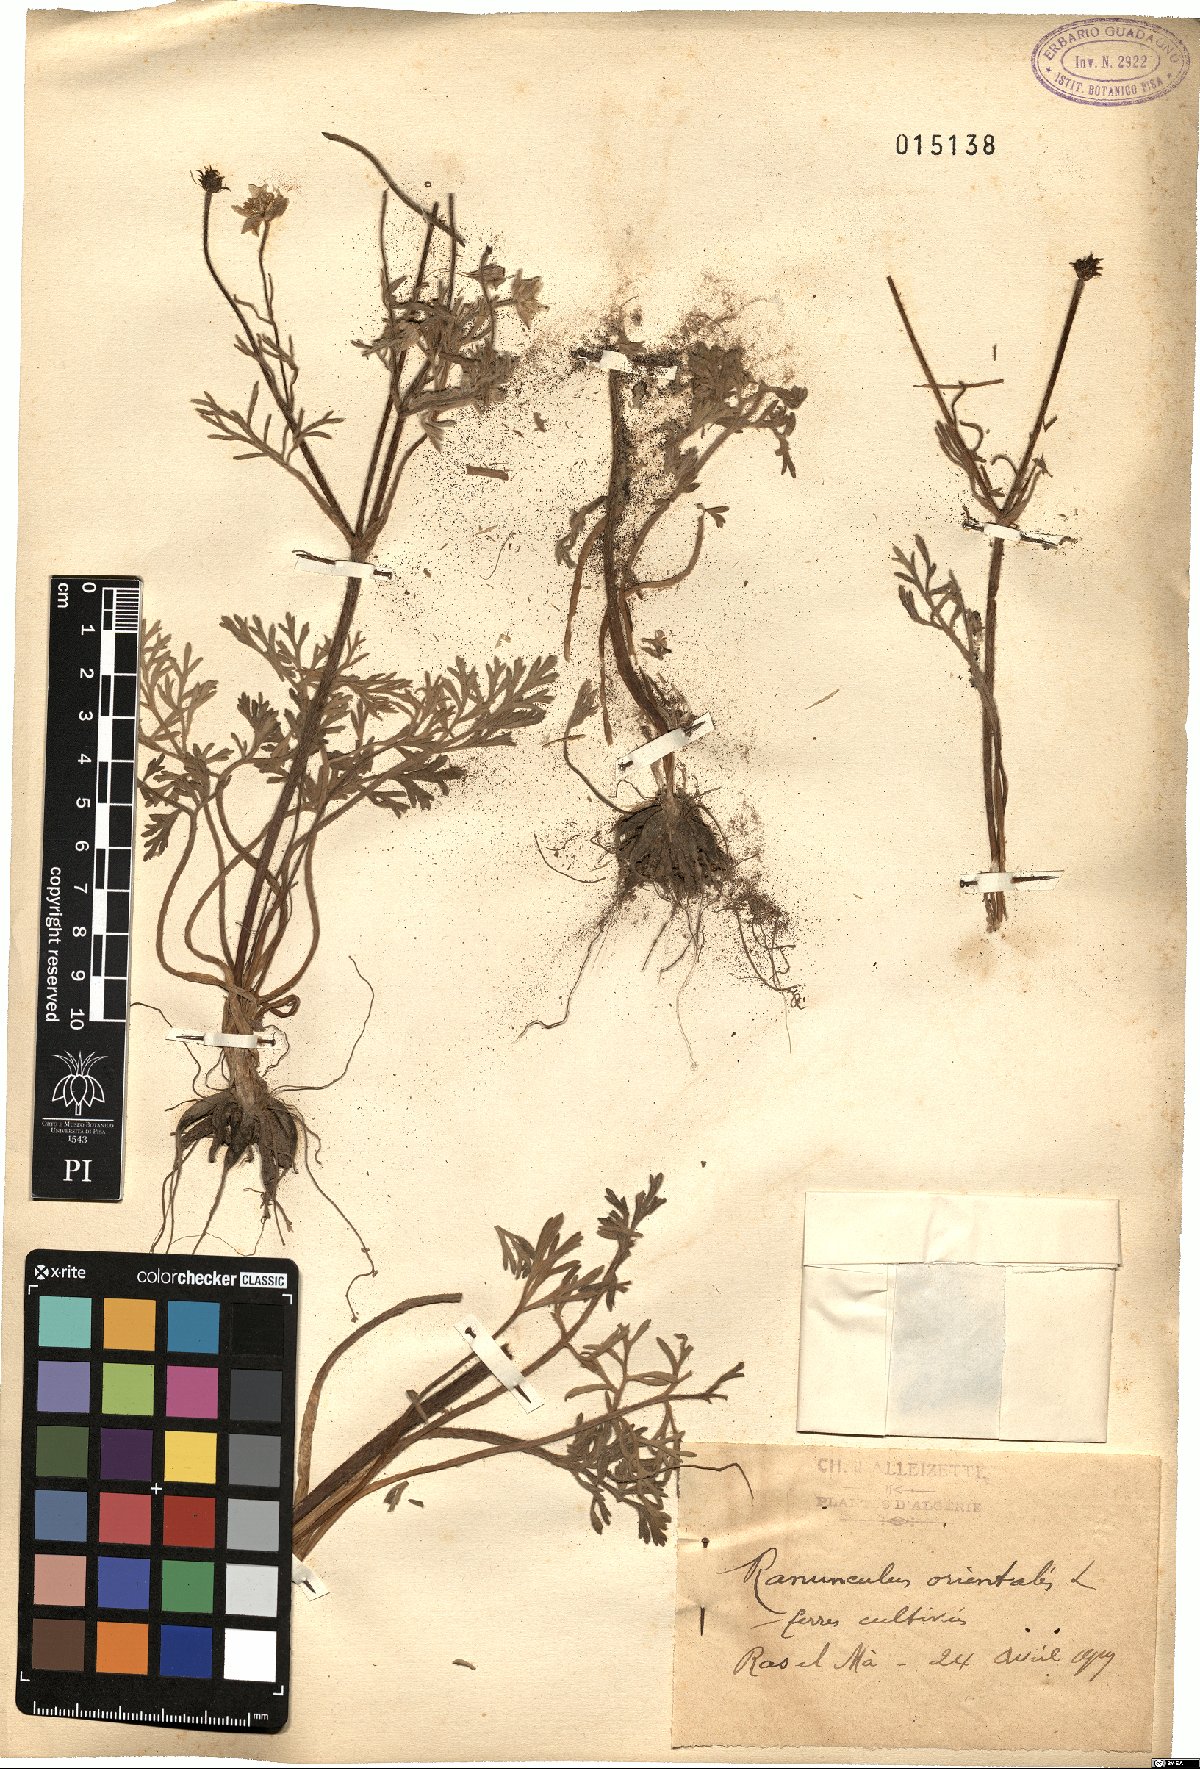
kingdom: Plantae
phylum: Tracheophyta
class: Magnoliopsida
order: Ranunculales
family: Ranunculaceae
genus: Ranunculus
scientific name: Ranunculus
